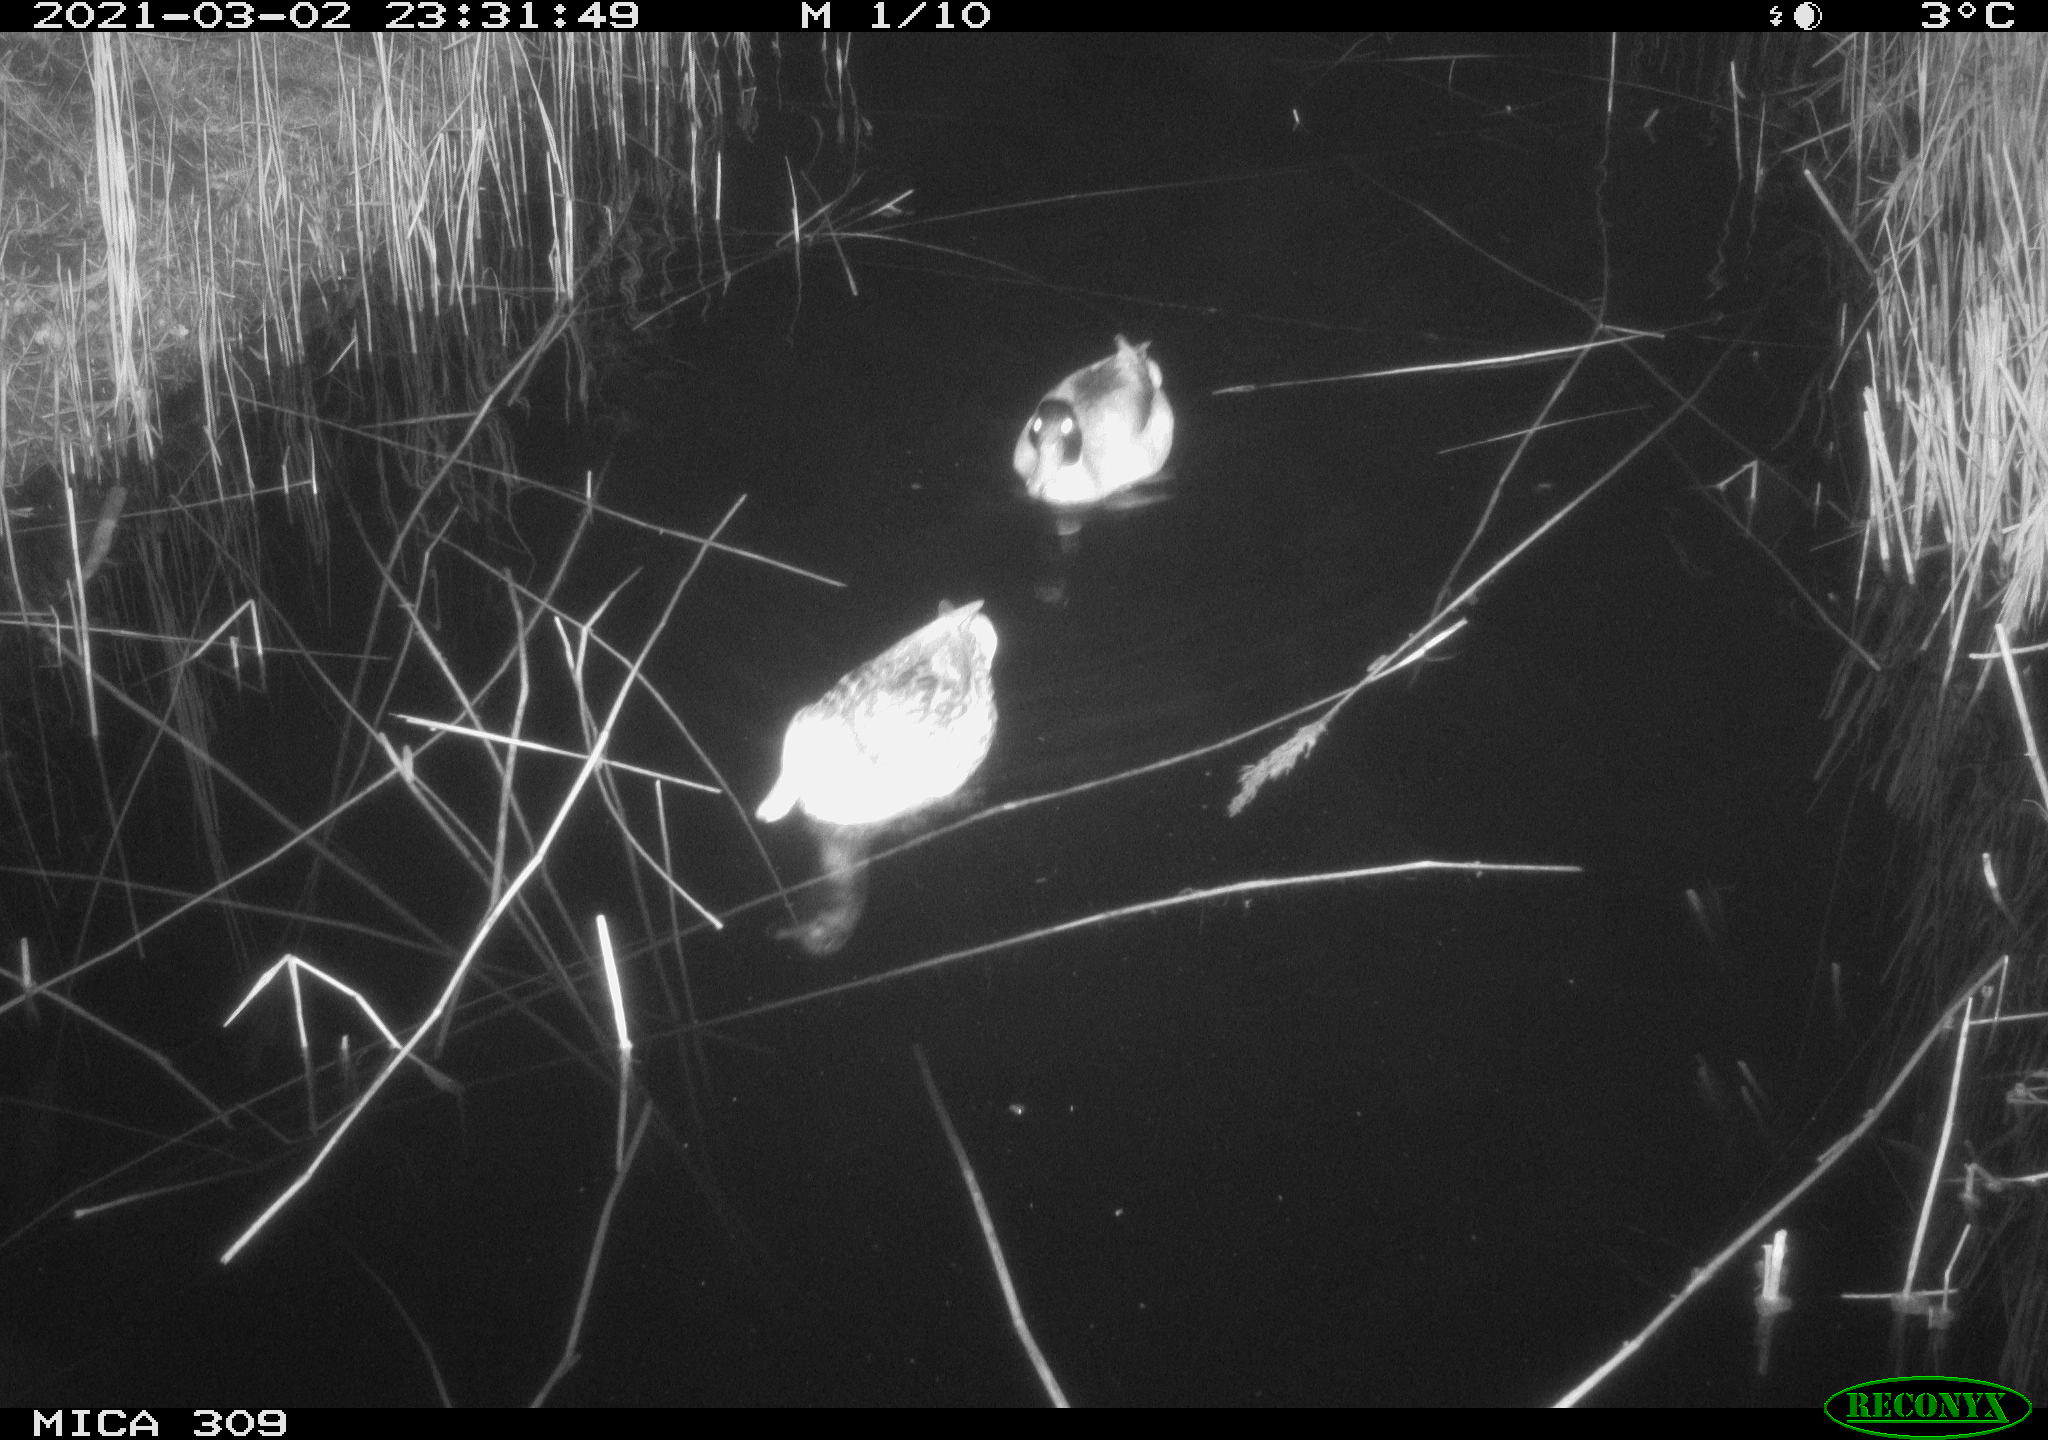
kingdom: Animalia
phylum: Chordata
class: Aves
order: Anseriformes
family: Anatidae
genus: Anas
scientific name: Anas platyrhynchos
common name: Mallard
